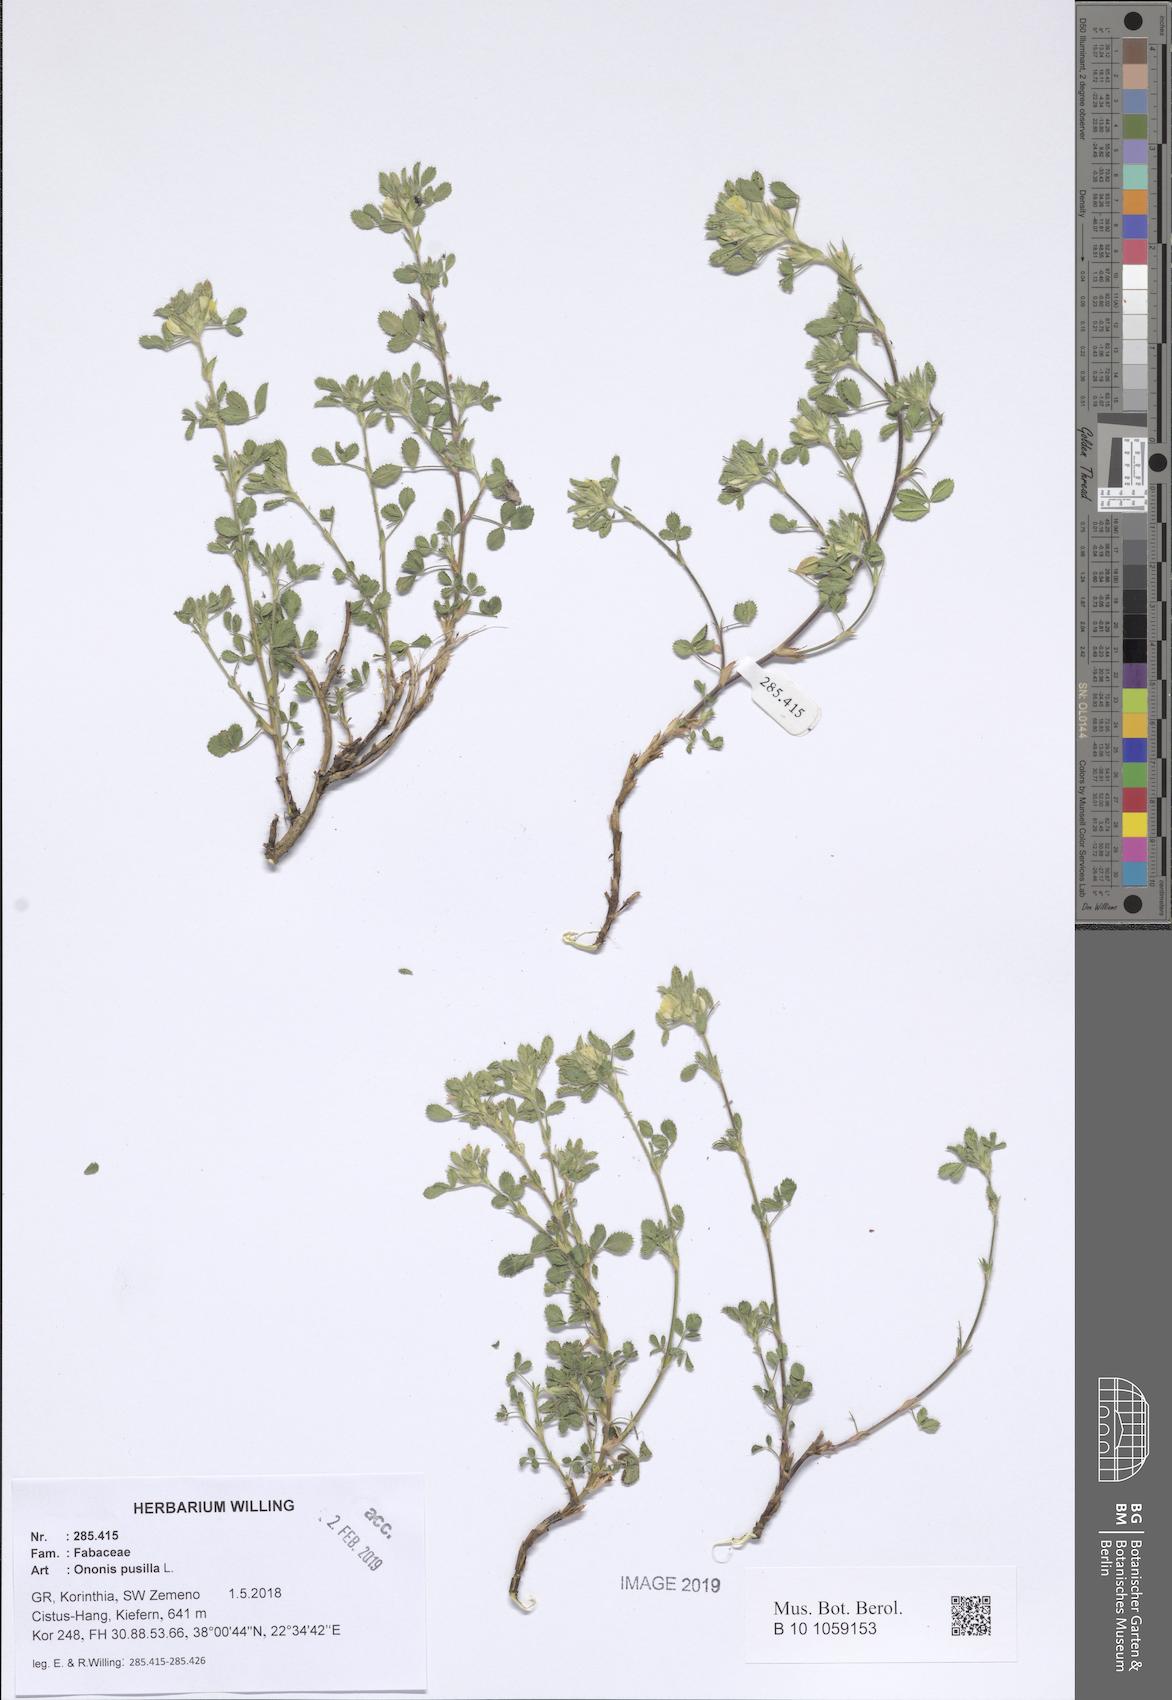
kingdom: Plantae
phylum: Tracheophyta
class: Magnoliopsida
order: Fabales
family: Fabaceae
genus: Ononis
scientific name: Ononis pusilla
